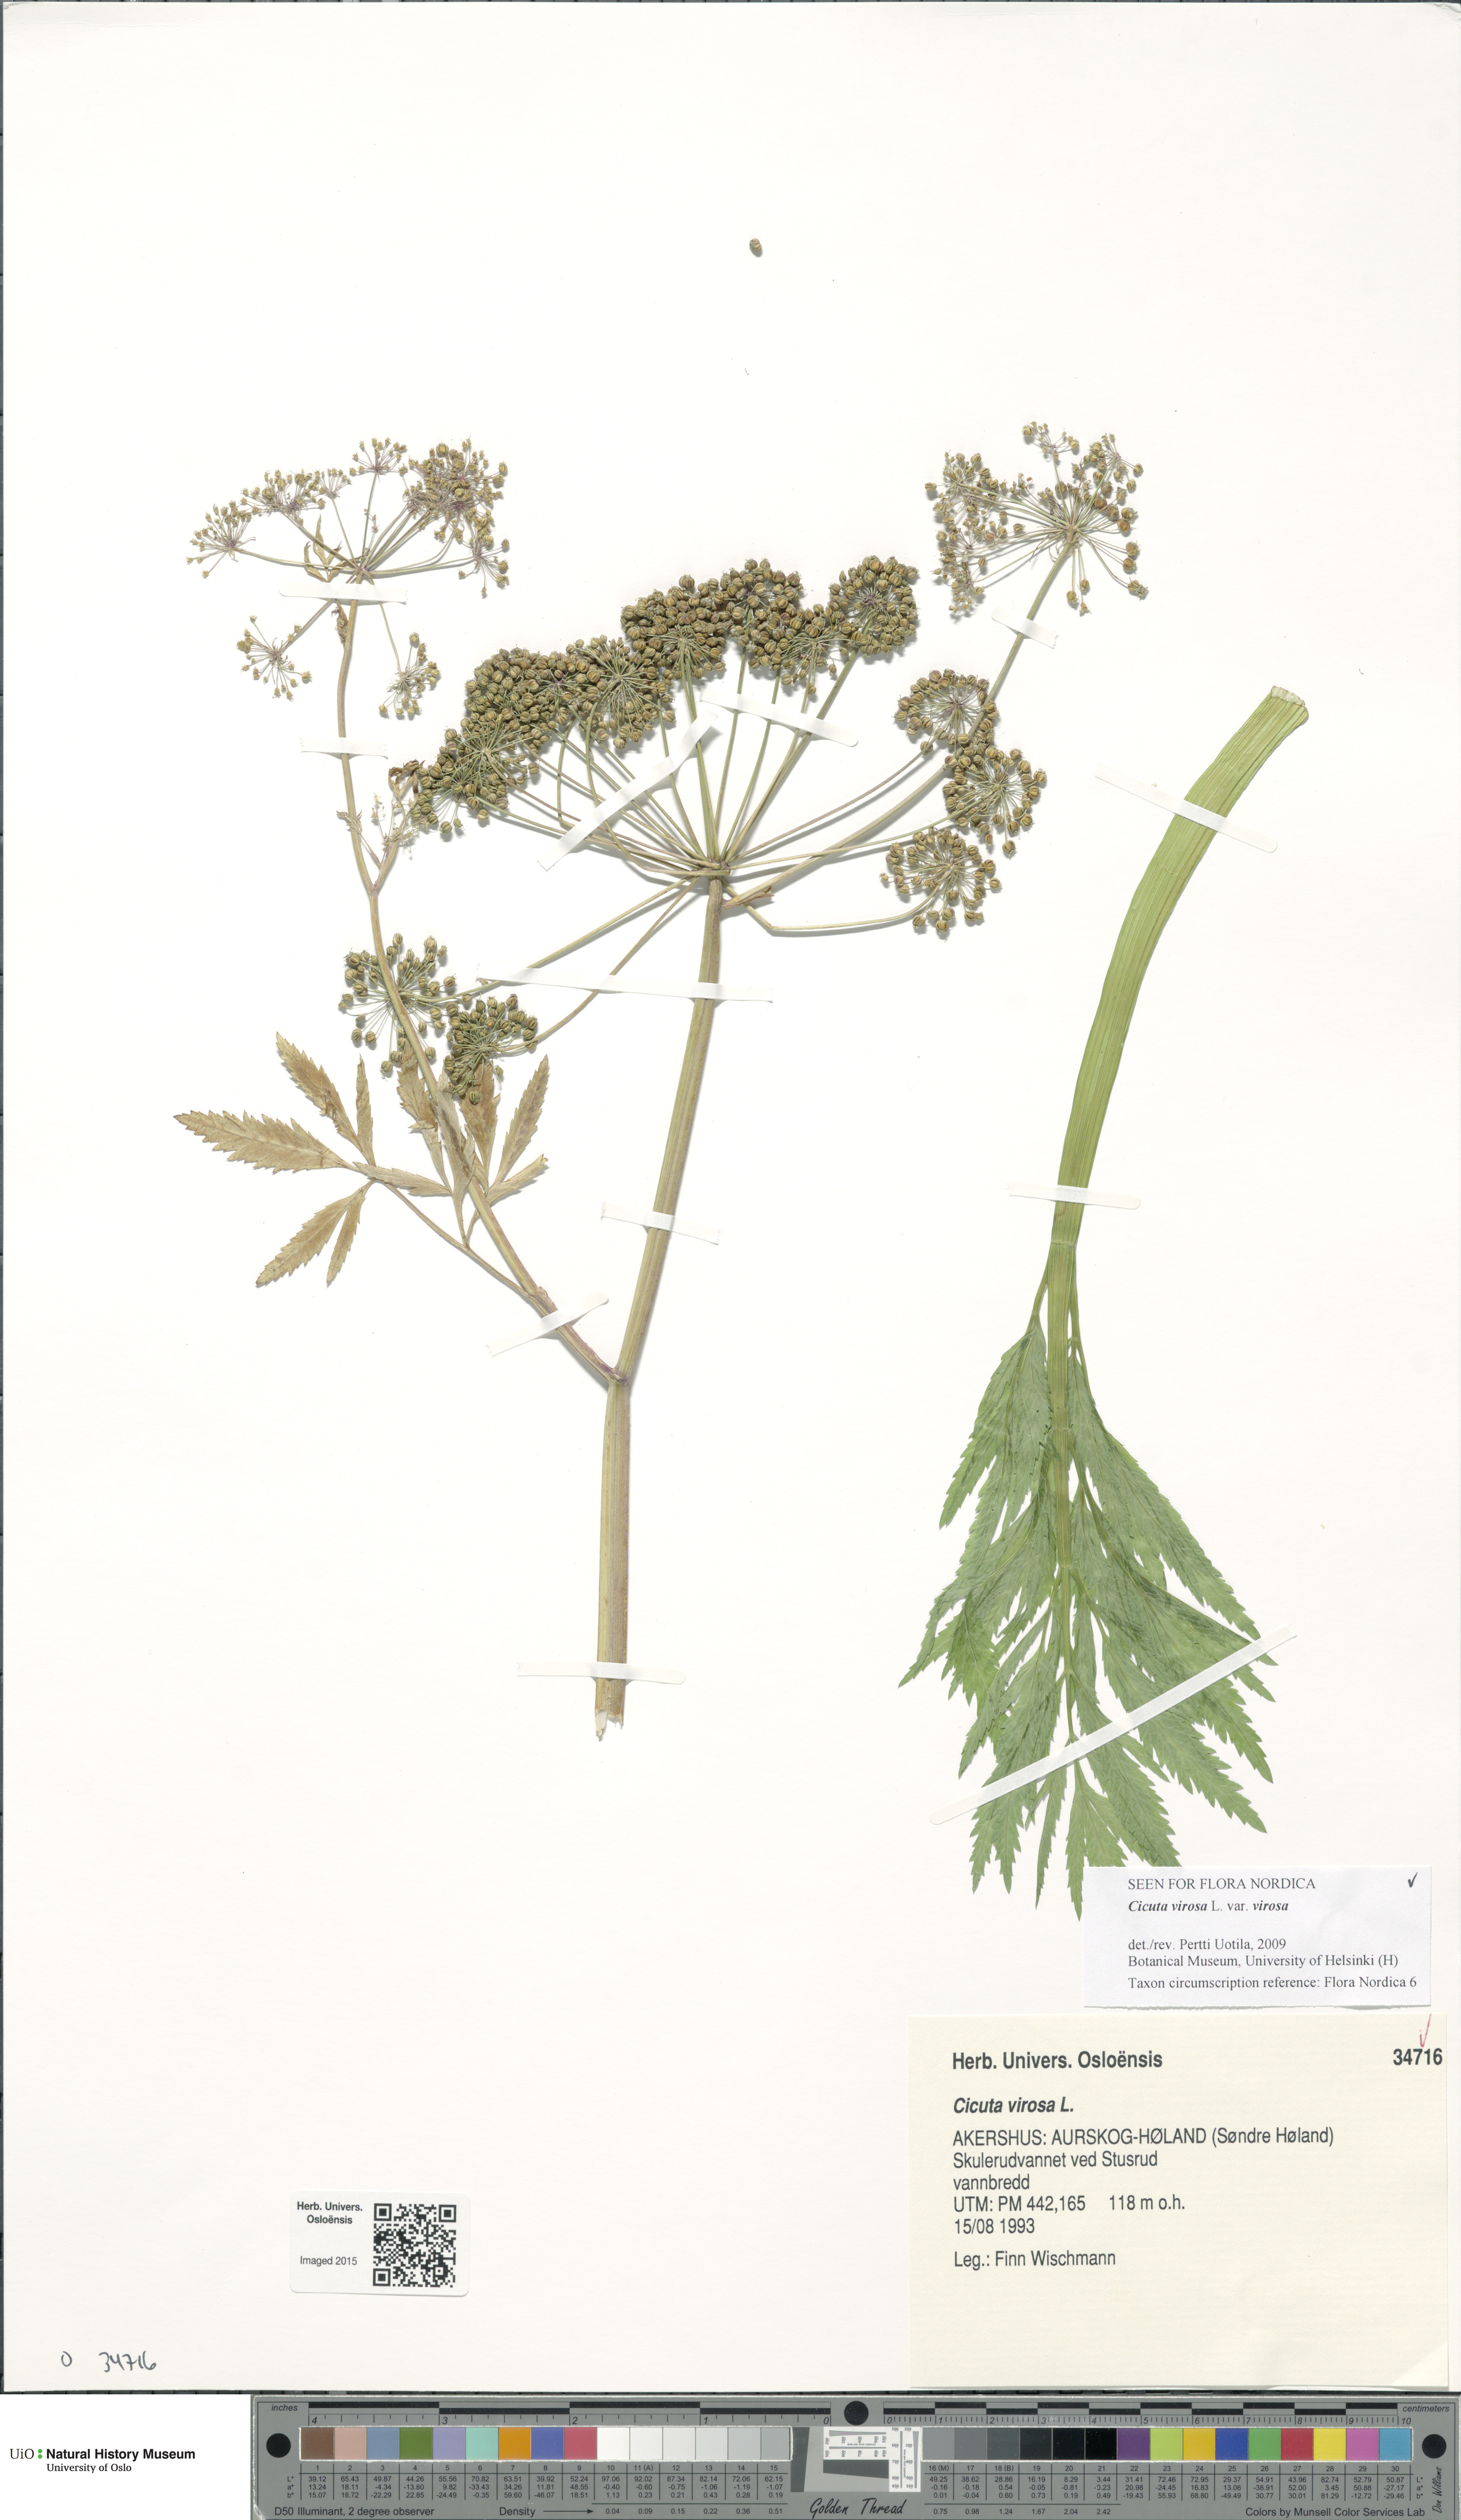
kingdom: Plantae
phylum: Tracheophyta
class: Magnoliopsida
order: Apiales
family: Apiaceae
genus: Cicuta
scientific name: Cicuta virosa
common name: Cowbane
